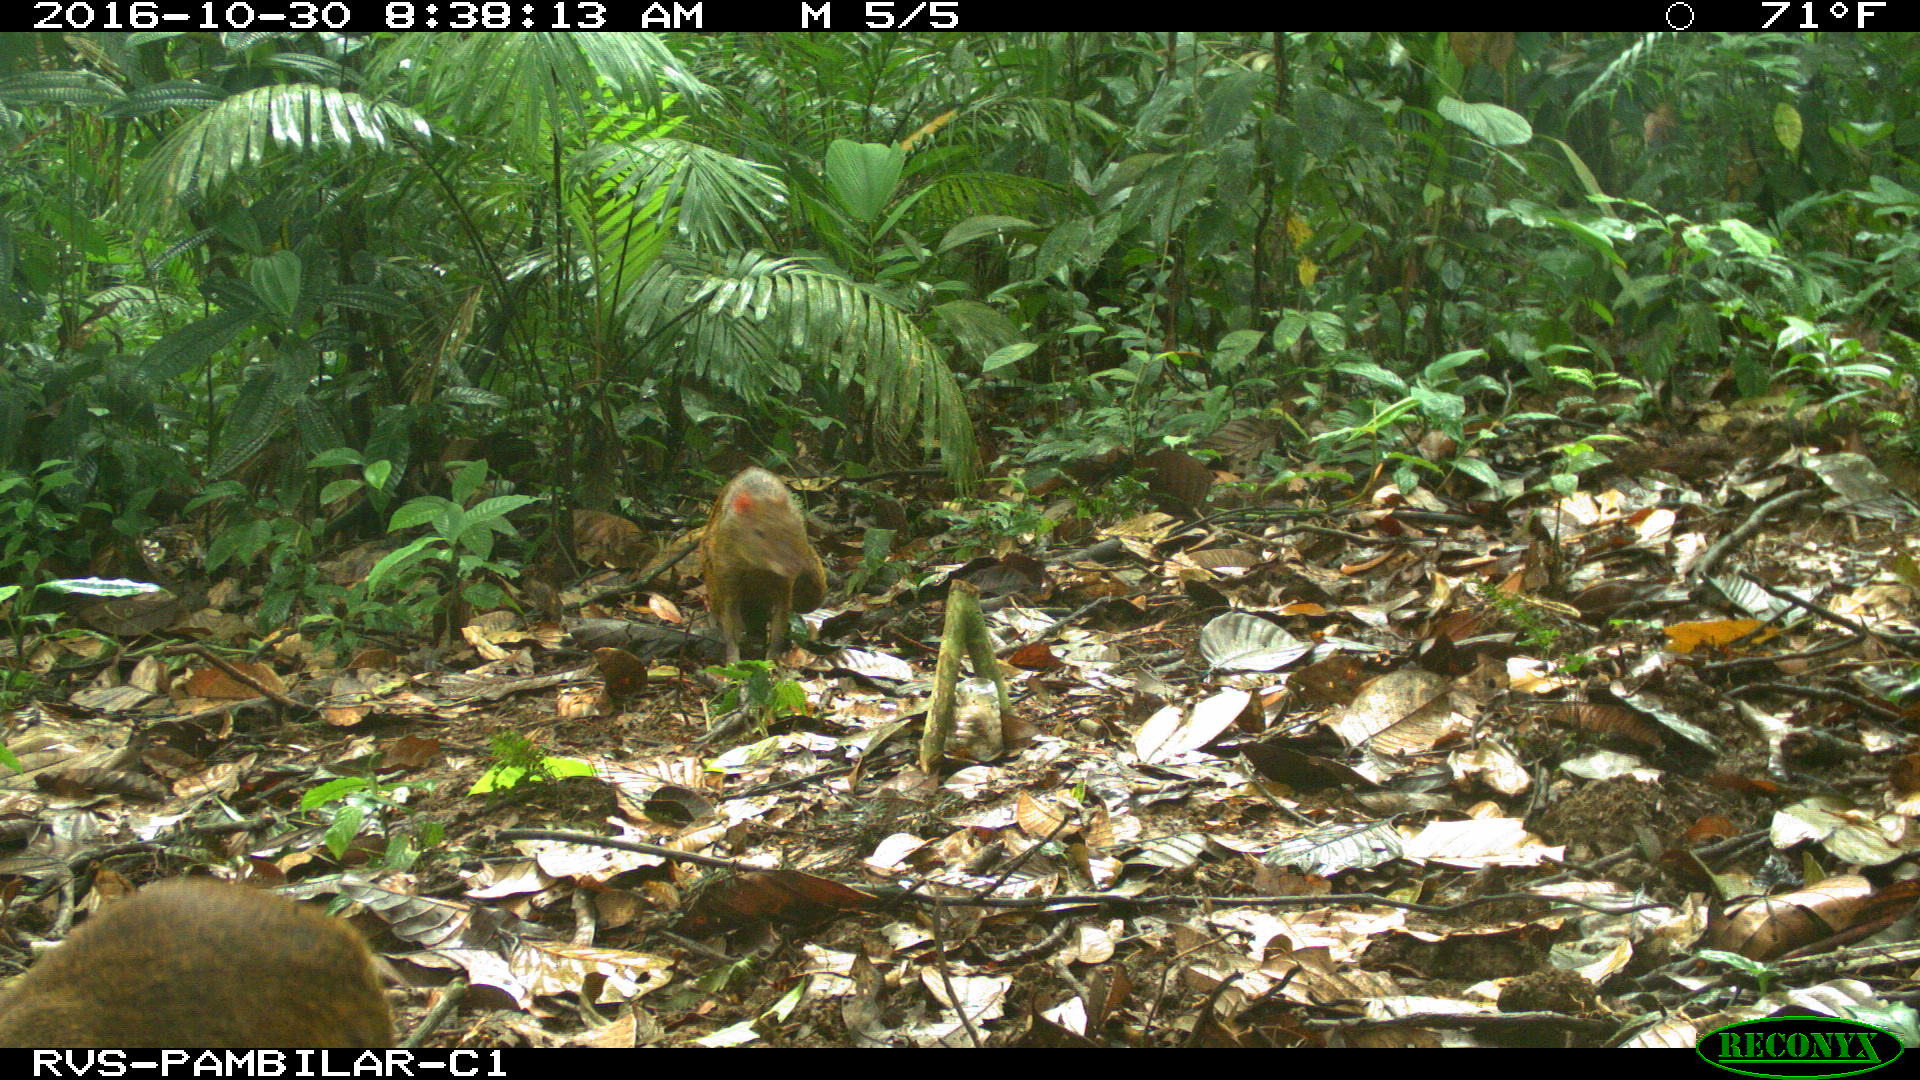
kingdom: Animalia
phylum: Chordata
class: Mammalia
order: Rodentia
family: Dasyproctidae
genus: Dasyprocta
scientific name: Dasyprocta punctata
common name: Central american agouti
